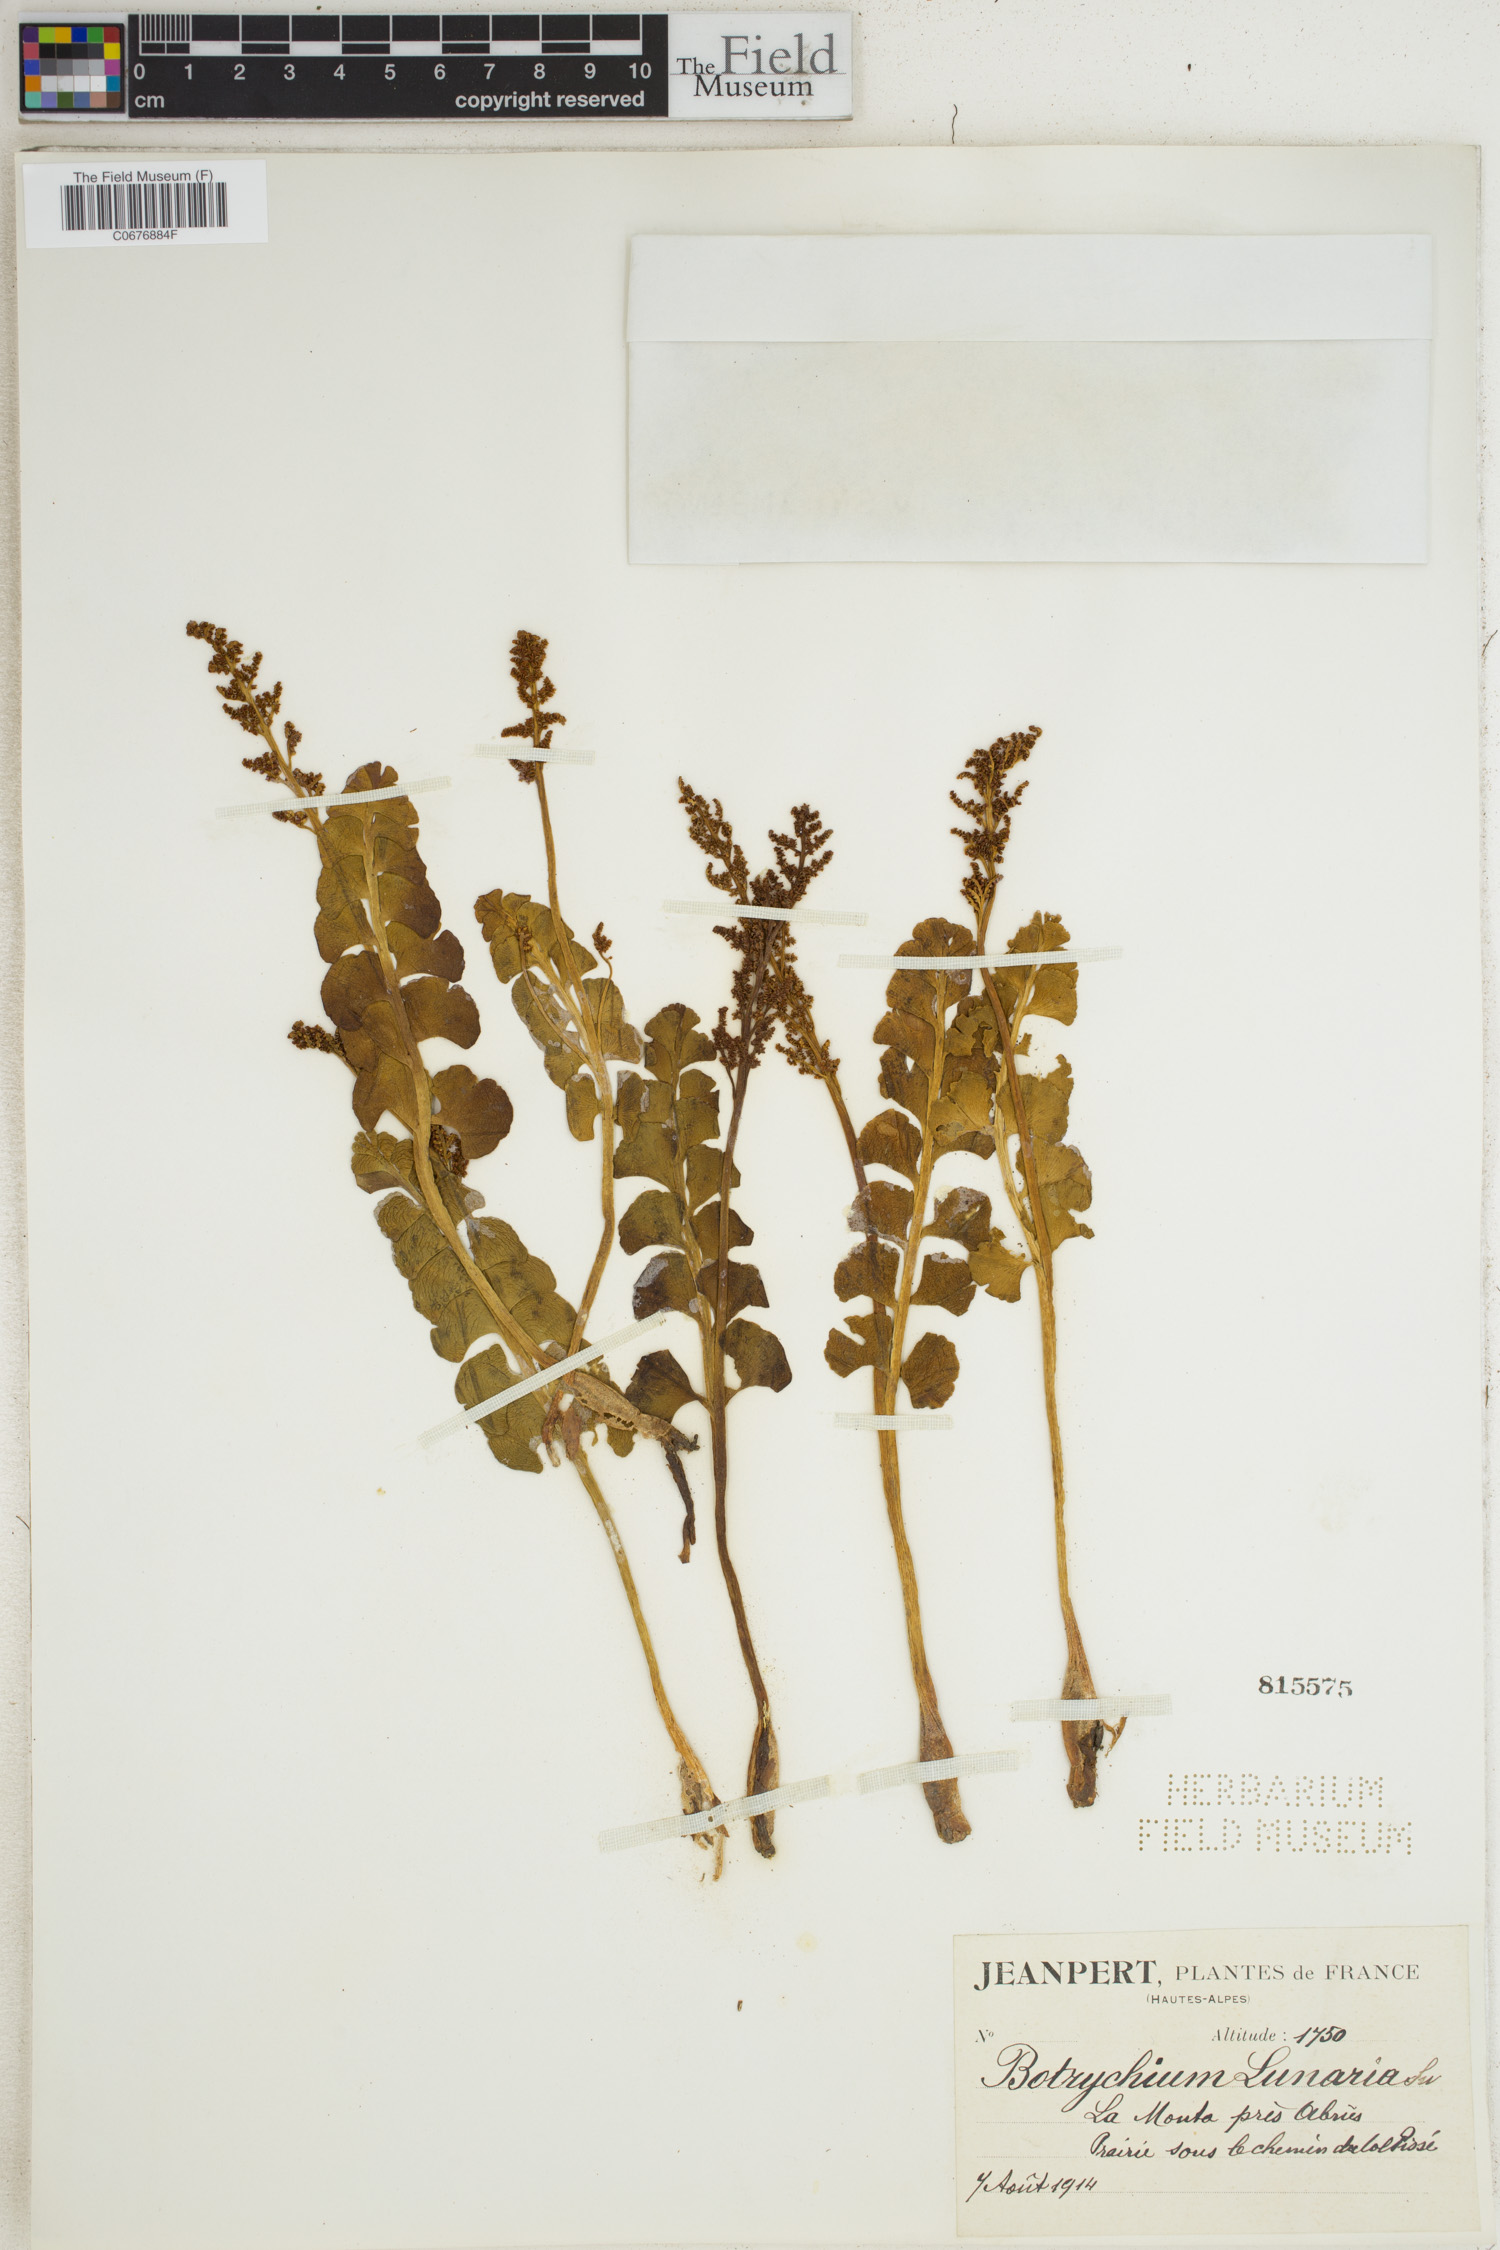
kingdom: Plantae
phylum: Tracheophyta
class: Polypodiopsida
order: Ophioglossales
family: Ophioglossaceae
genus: Botrychium
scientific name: Botrychium lunaria
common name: Moonwort
